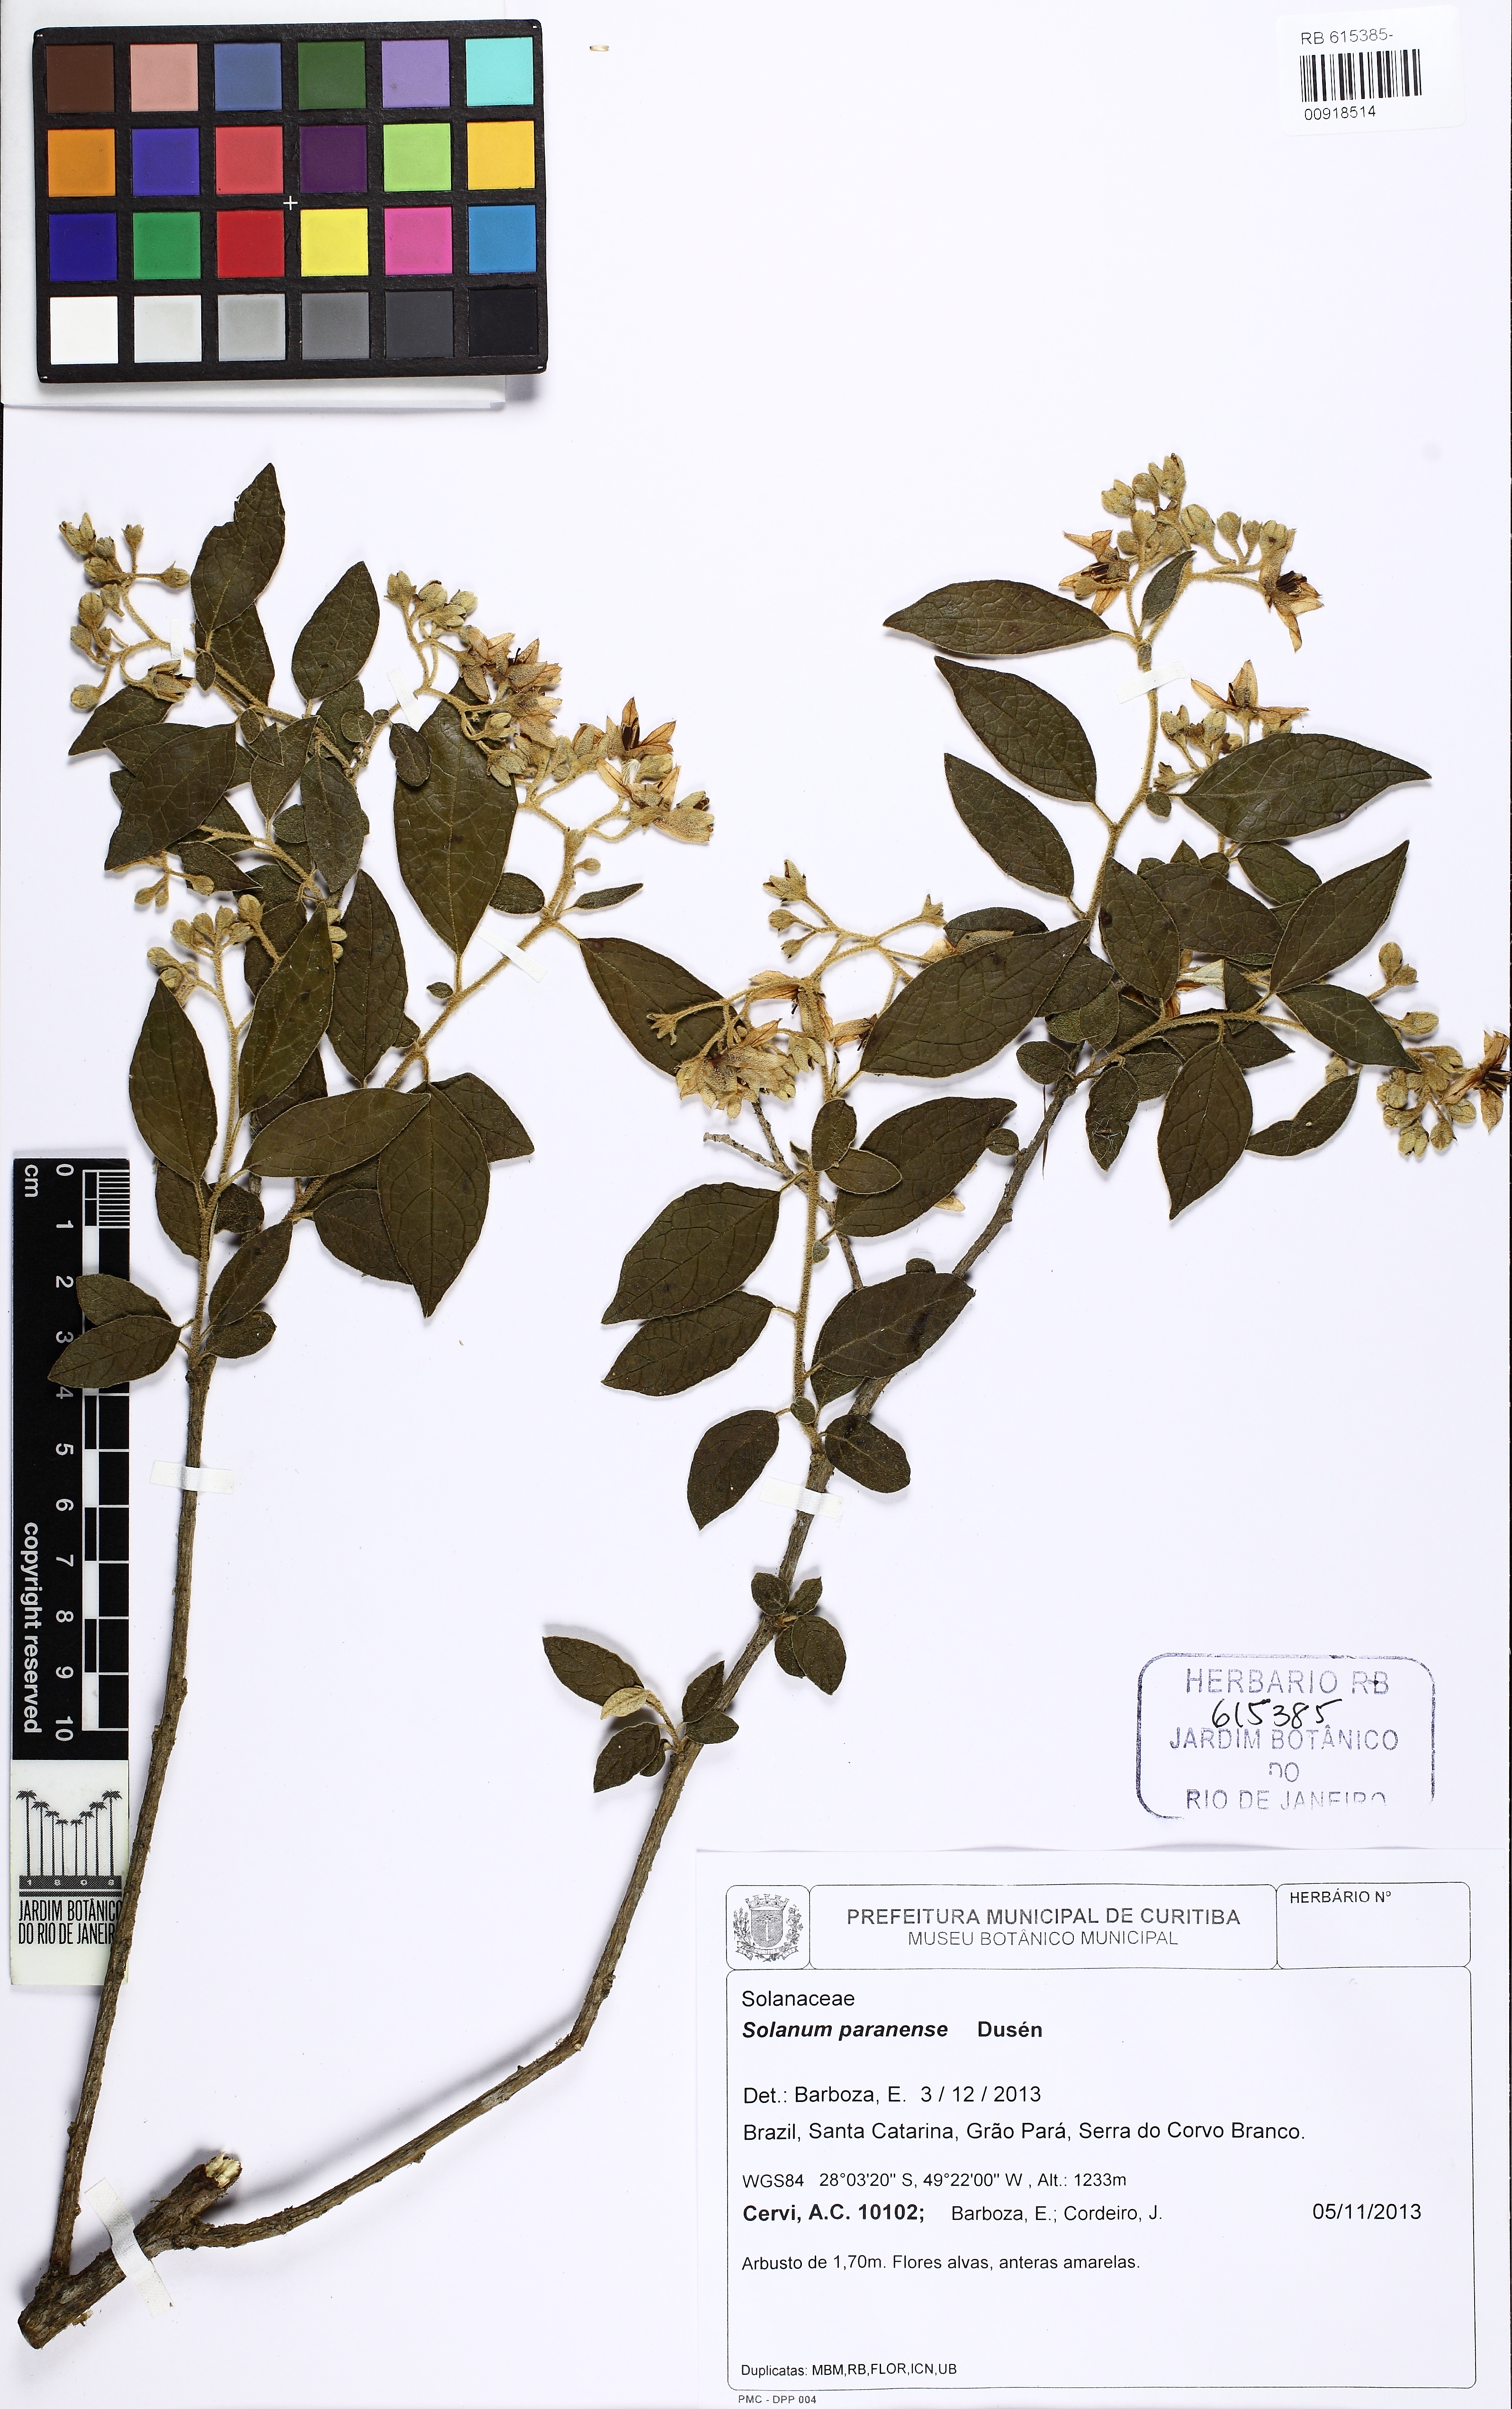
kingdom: Plantae
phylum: Tracheophyta
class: Magnoliopsida
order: Solanales
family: Solanaceae
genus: Solanum
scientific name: Solanum paranense
